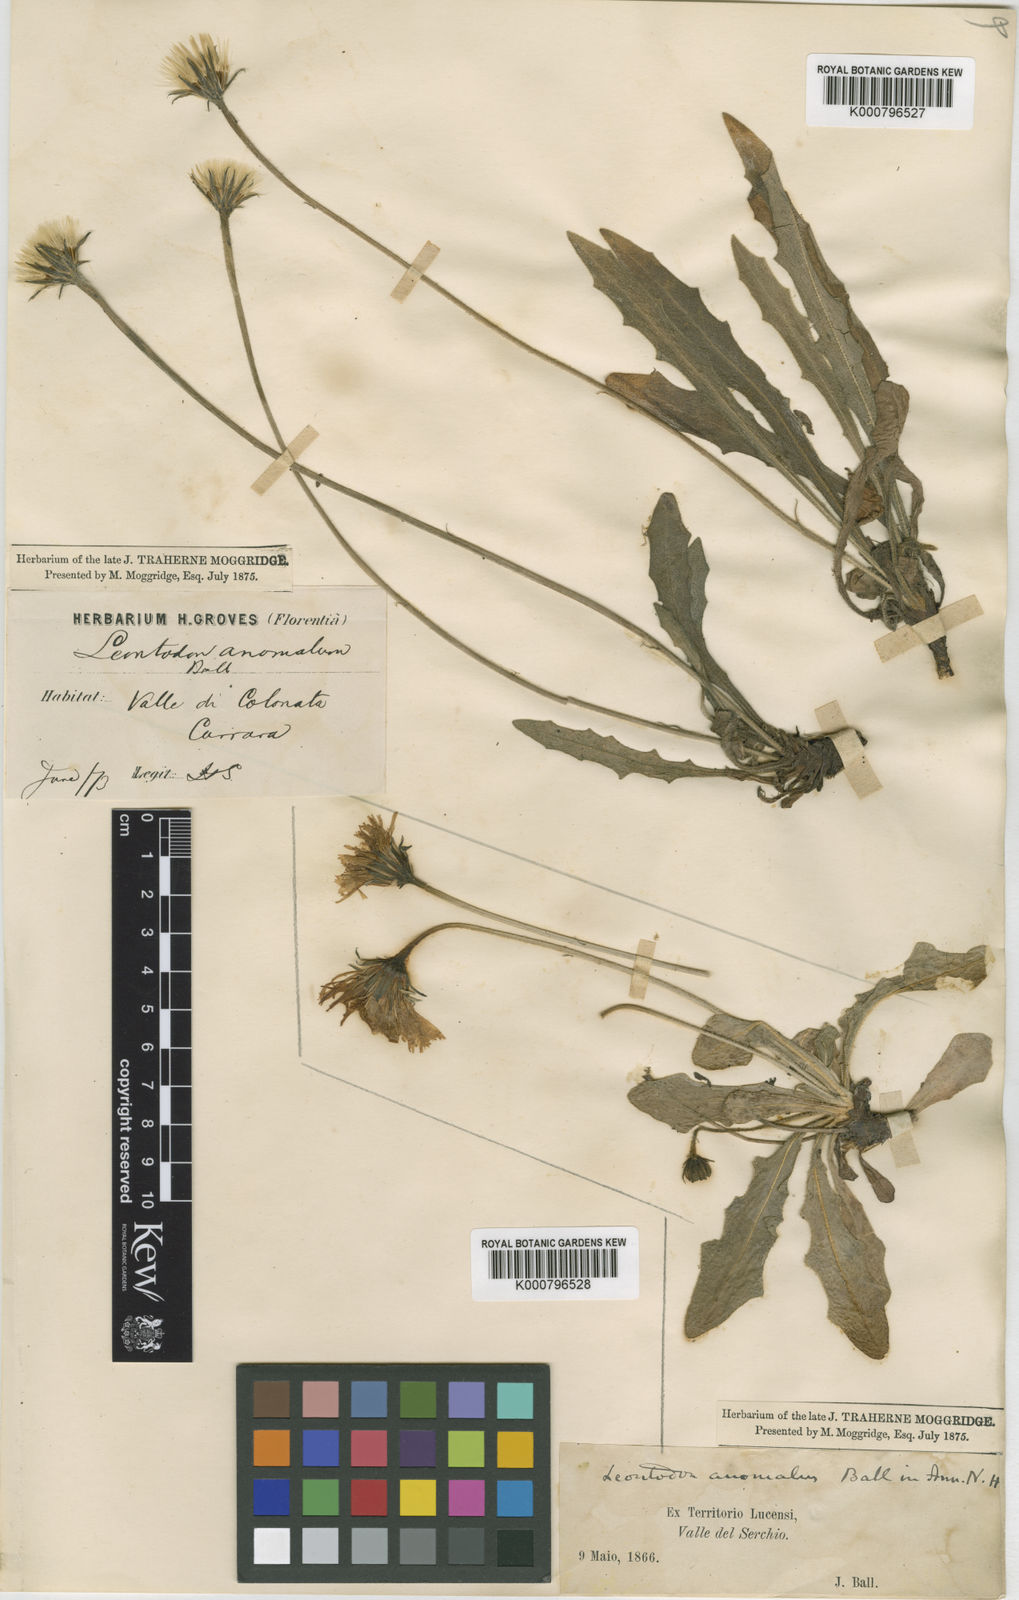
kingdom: Plantae
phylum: Tracheophyta
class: Magnoliopsida
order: Asterales
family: Asteraceae
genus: Leontodon
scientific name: Leontodon crispus
